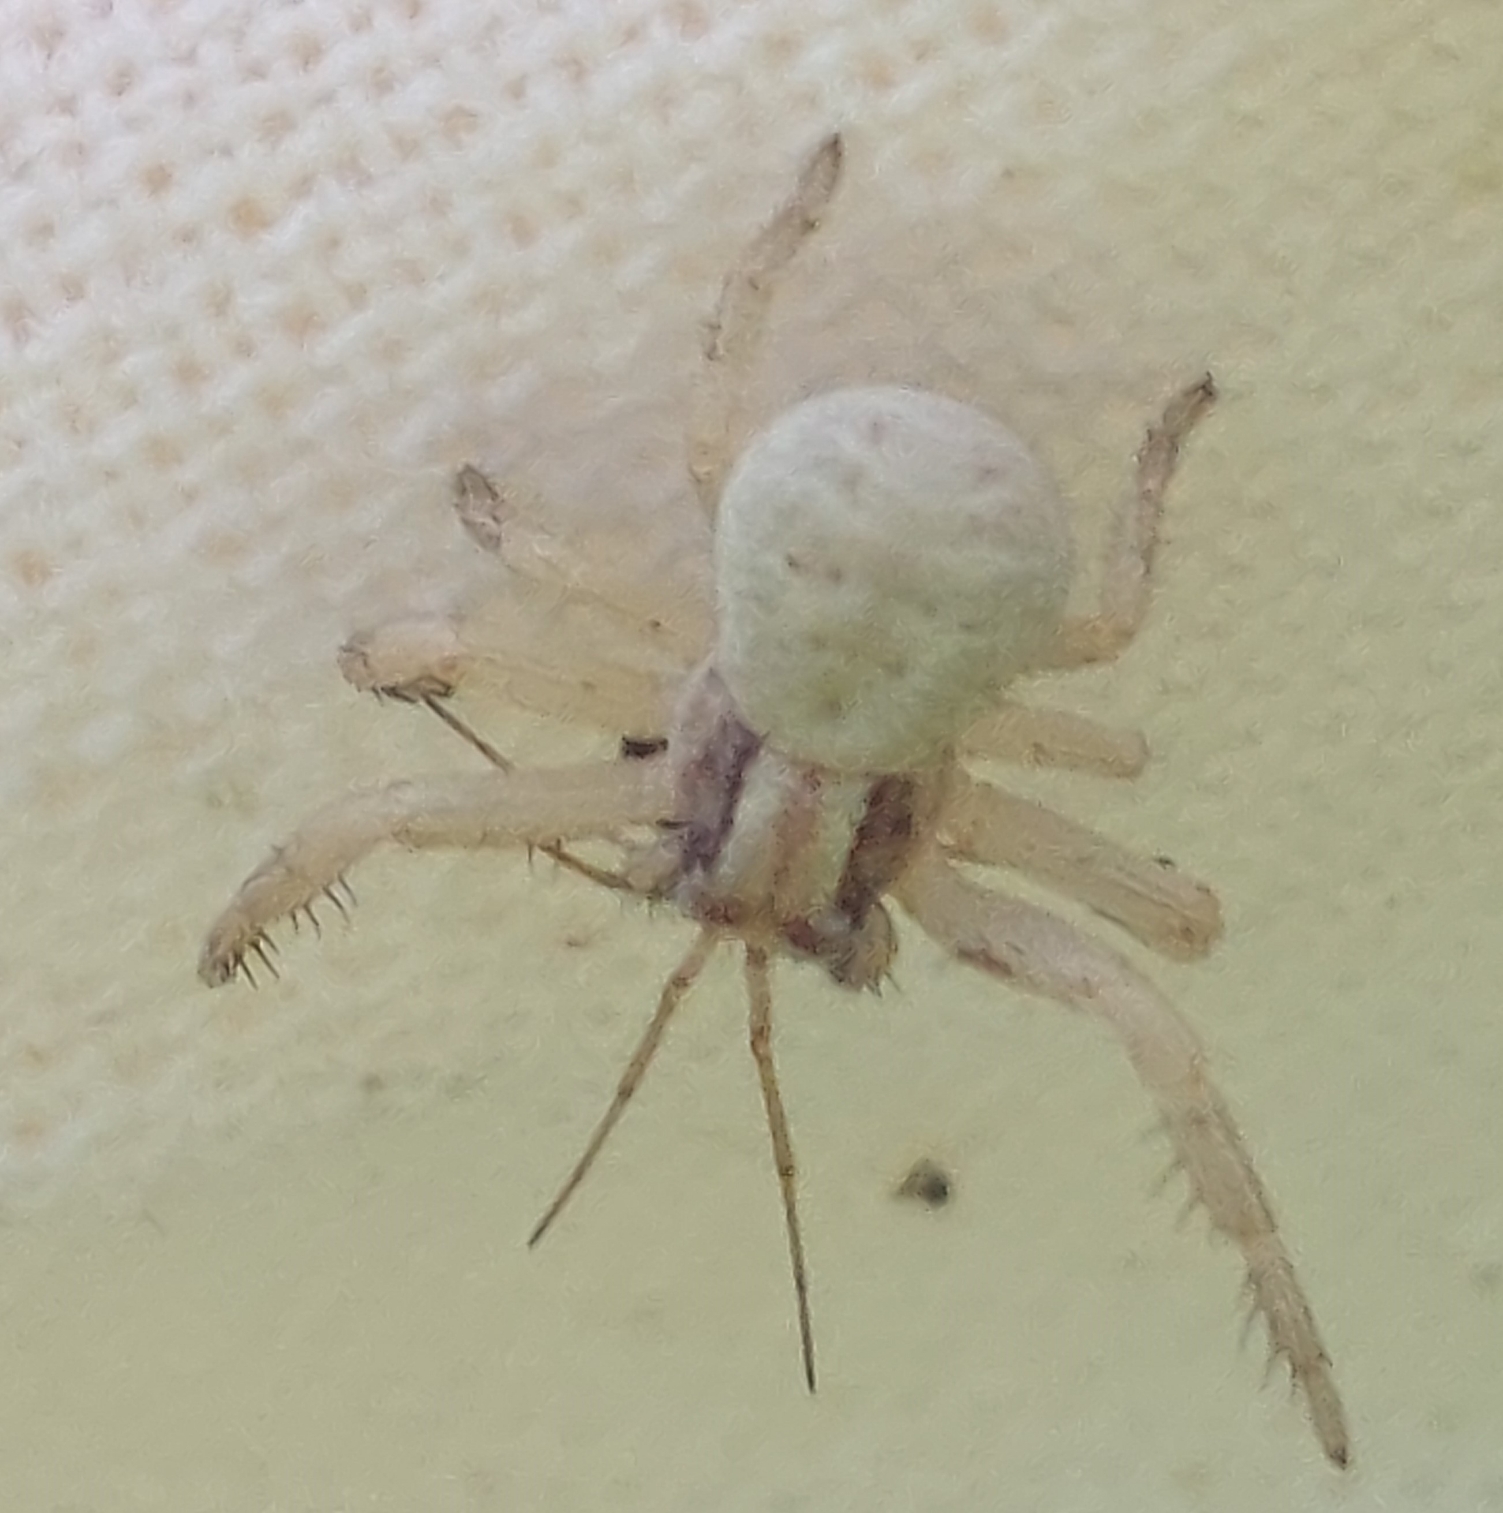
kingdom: Animalia
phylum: Arthropoda
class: Arachnida
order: Araneae
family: Thomisidae
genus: Xysticus
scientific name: Xysticus
